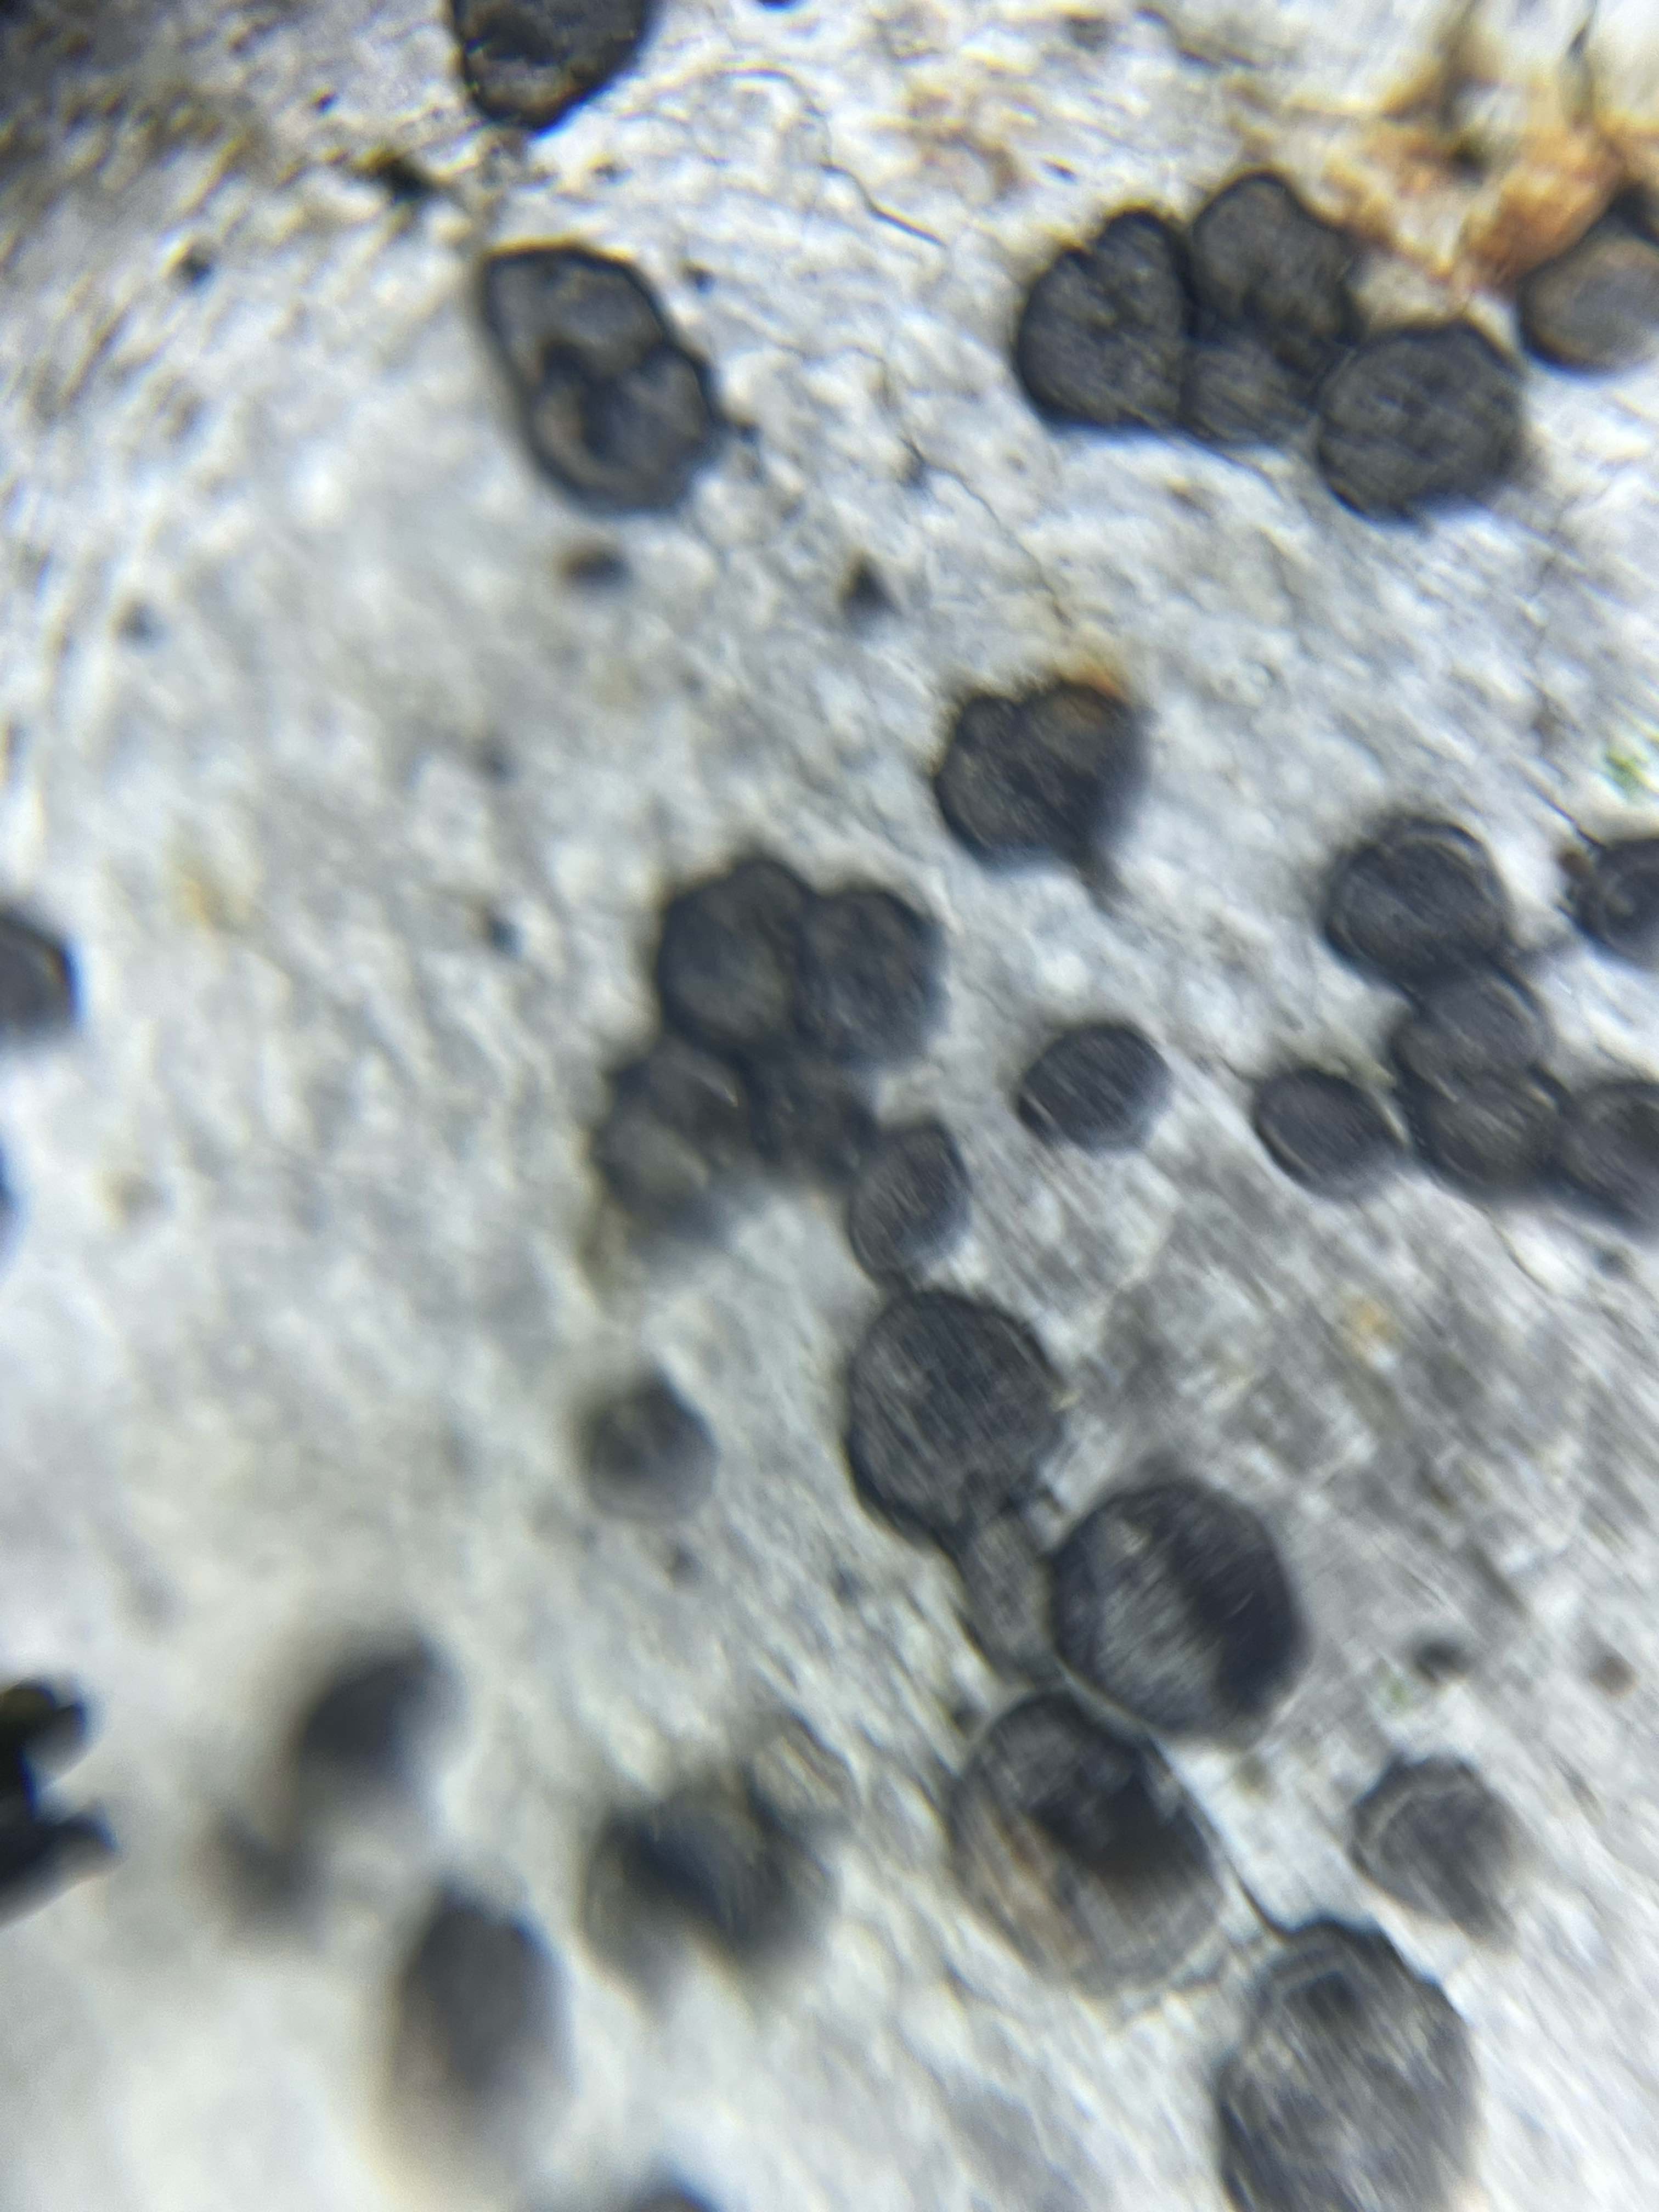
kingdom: Fungi
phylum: Ascomycota
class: Candelariomycetes
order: Candelariales
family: Candelariaceae
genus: Candelariella
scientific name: Candelariella vitellina
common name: almindelig æggeblommelav
